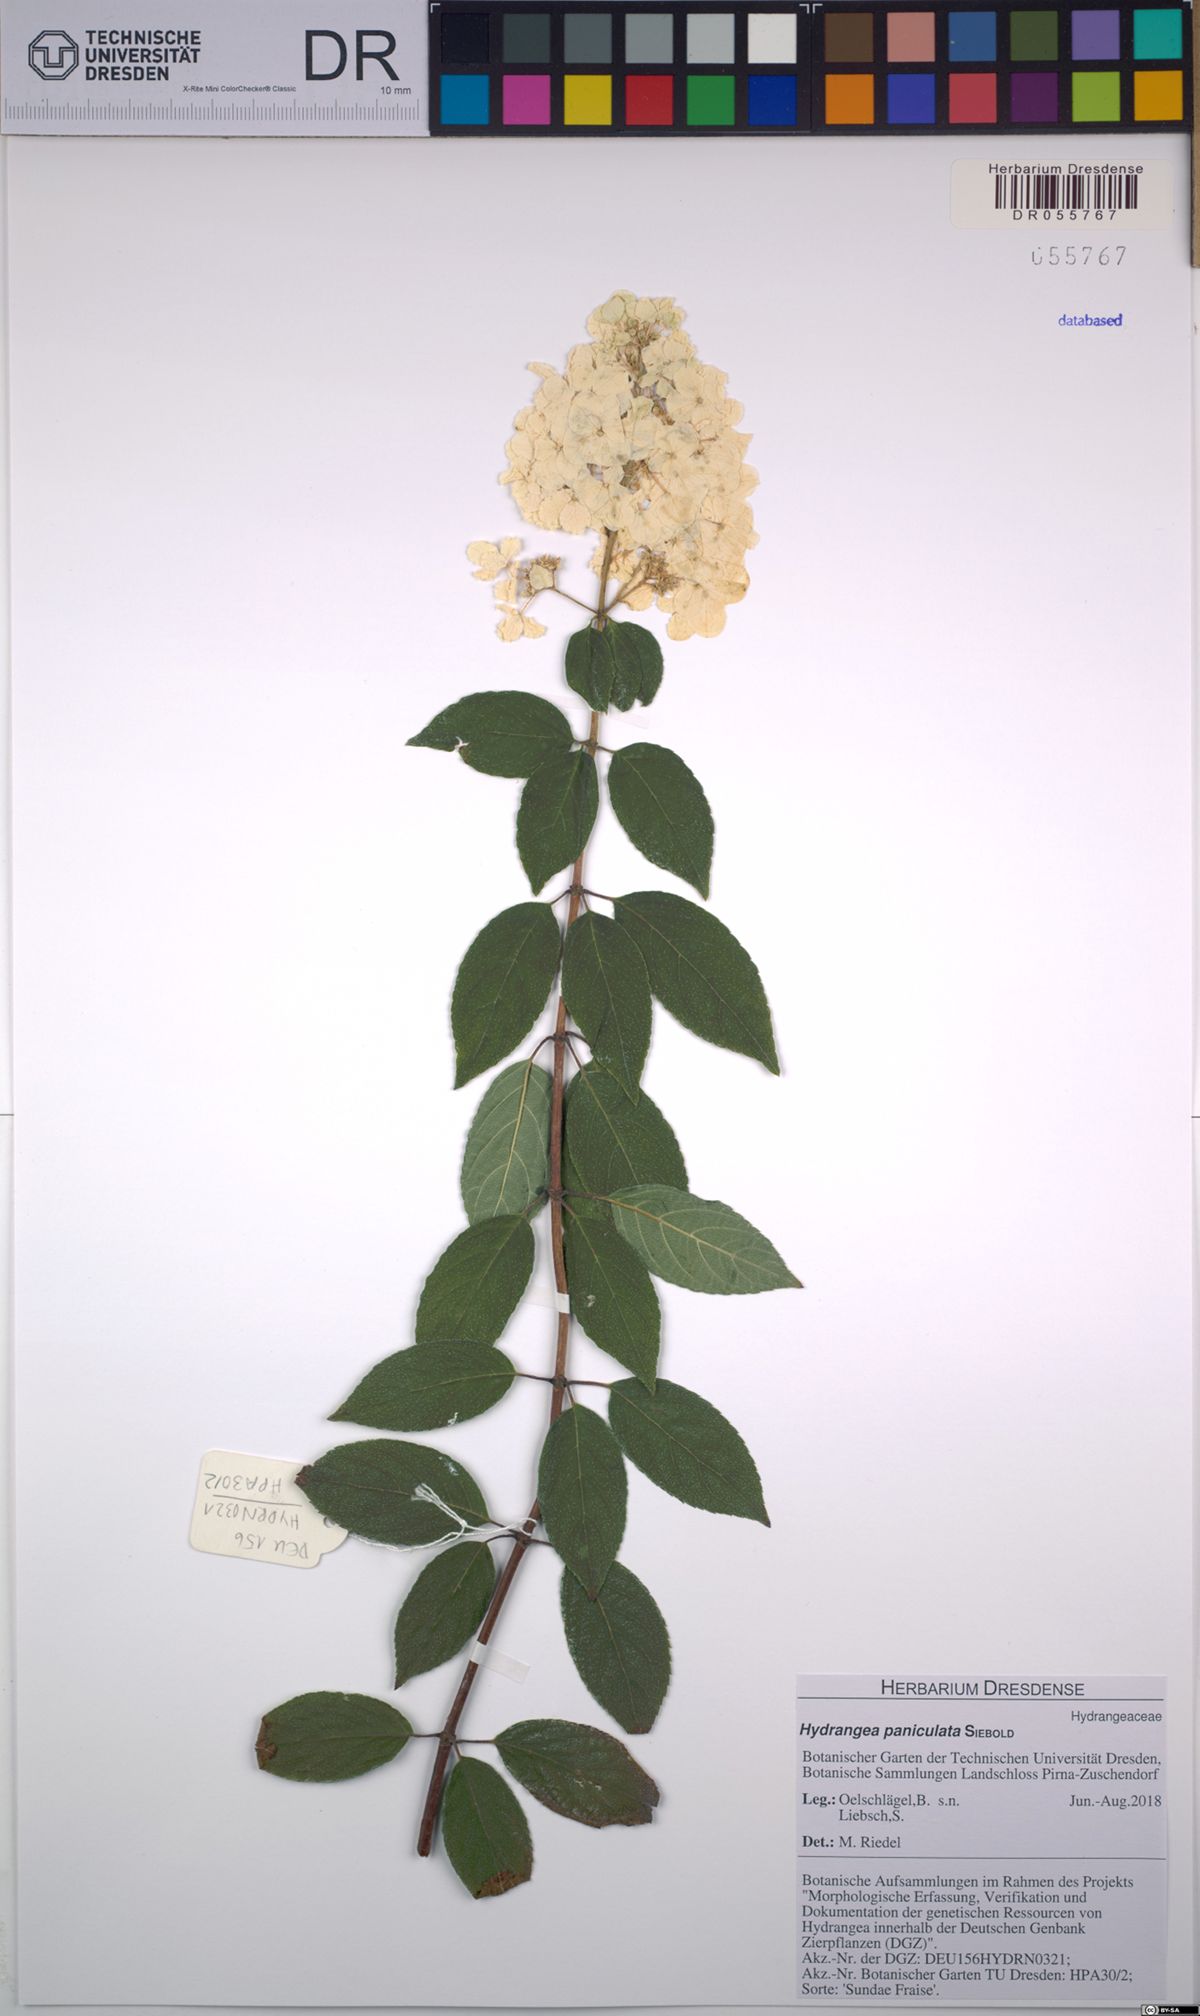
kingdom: Plantae
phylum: Tracheophyta
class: Magnoliopsida
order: Cornales
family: Hydrangeaceae
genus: Hydrangea
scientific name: Hydrangea paniculata
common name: Panicled hydrangea
